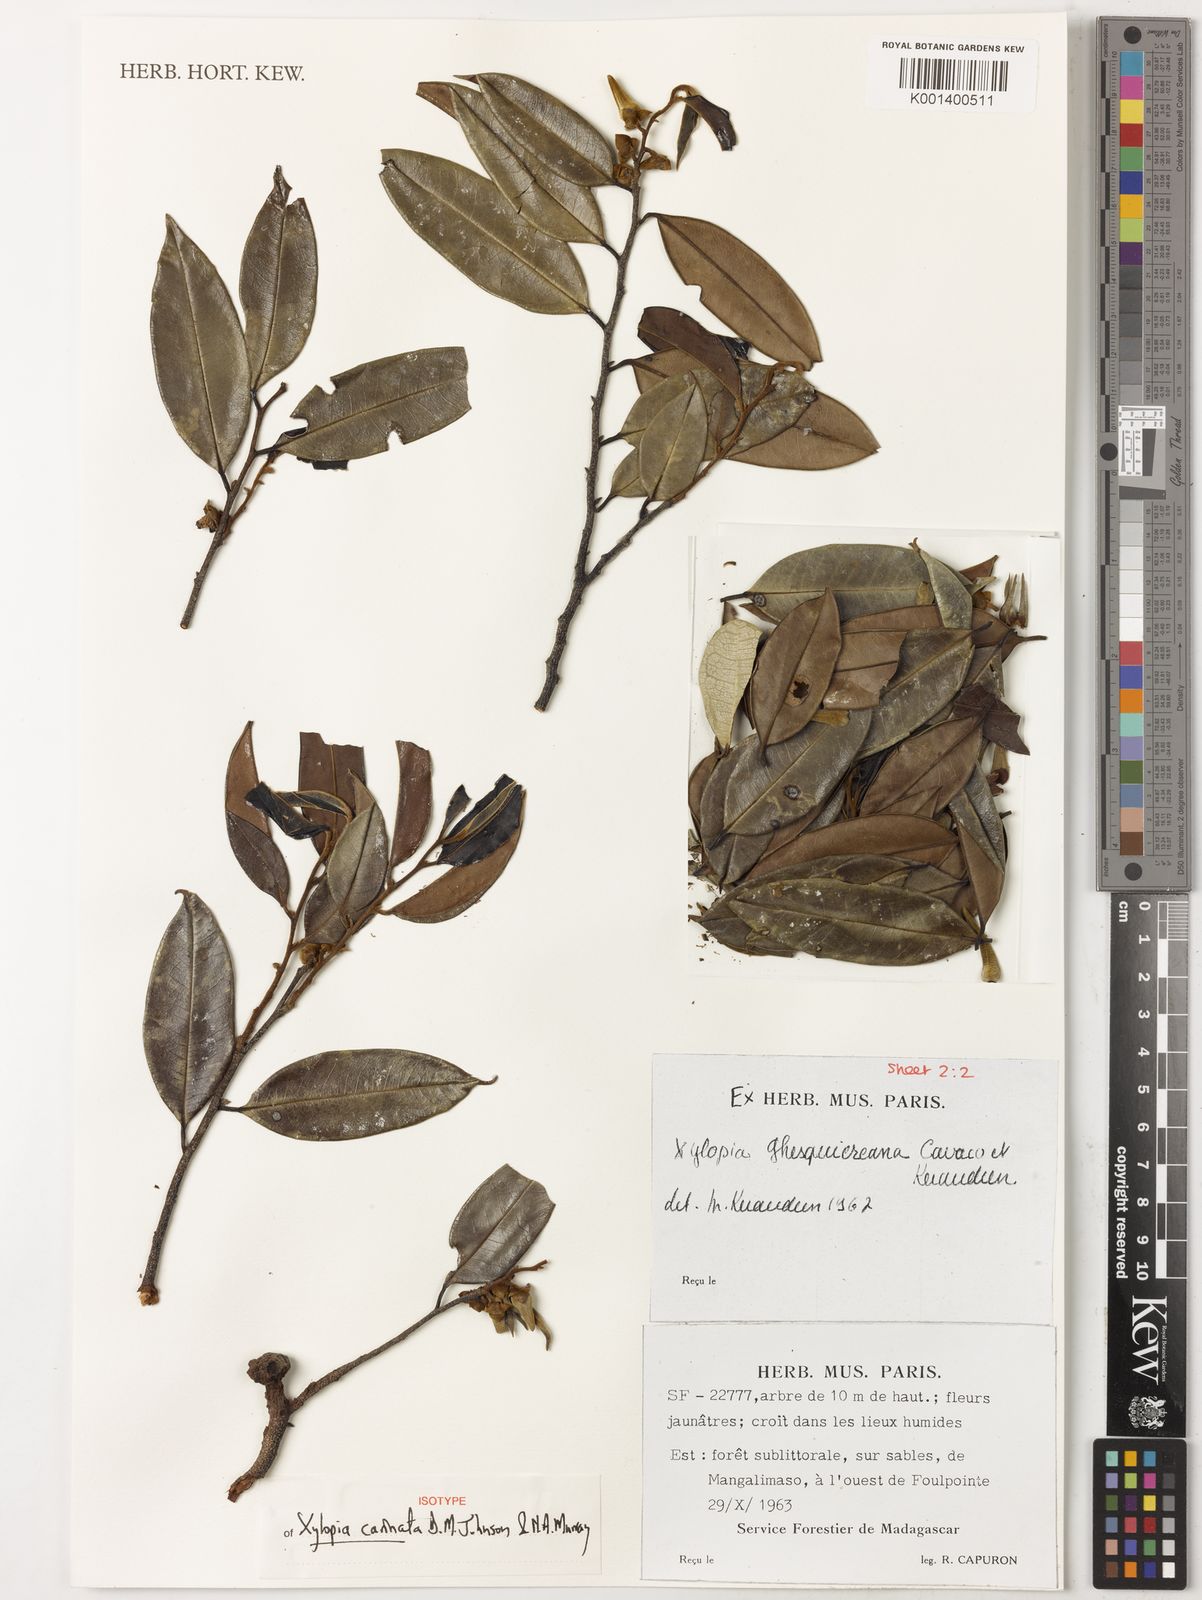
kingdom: Plantae
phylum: Tracheophyta
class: Magnoliopsida
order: Magnoliales
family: Annonaceae
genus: Xylopia
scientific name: Xylopia
